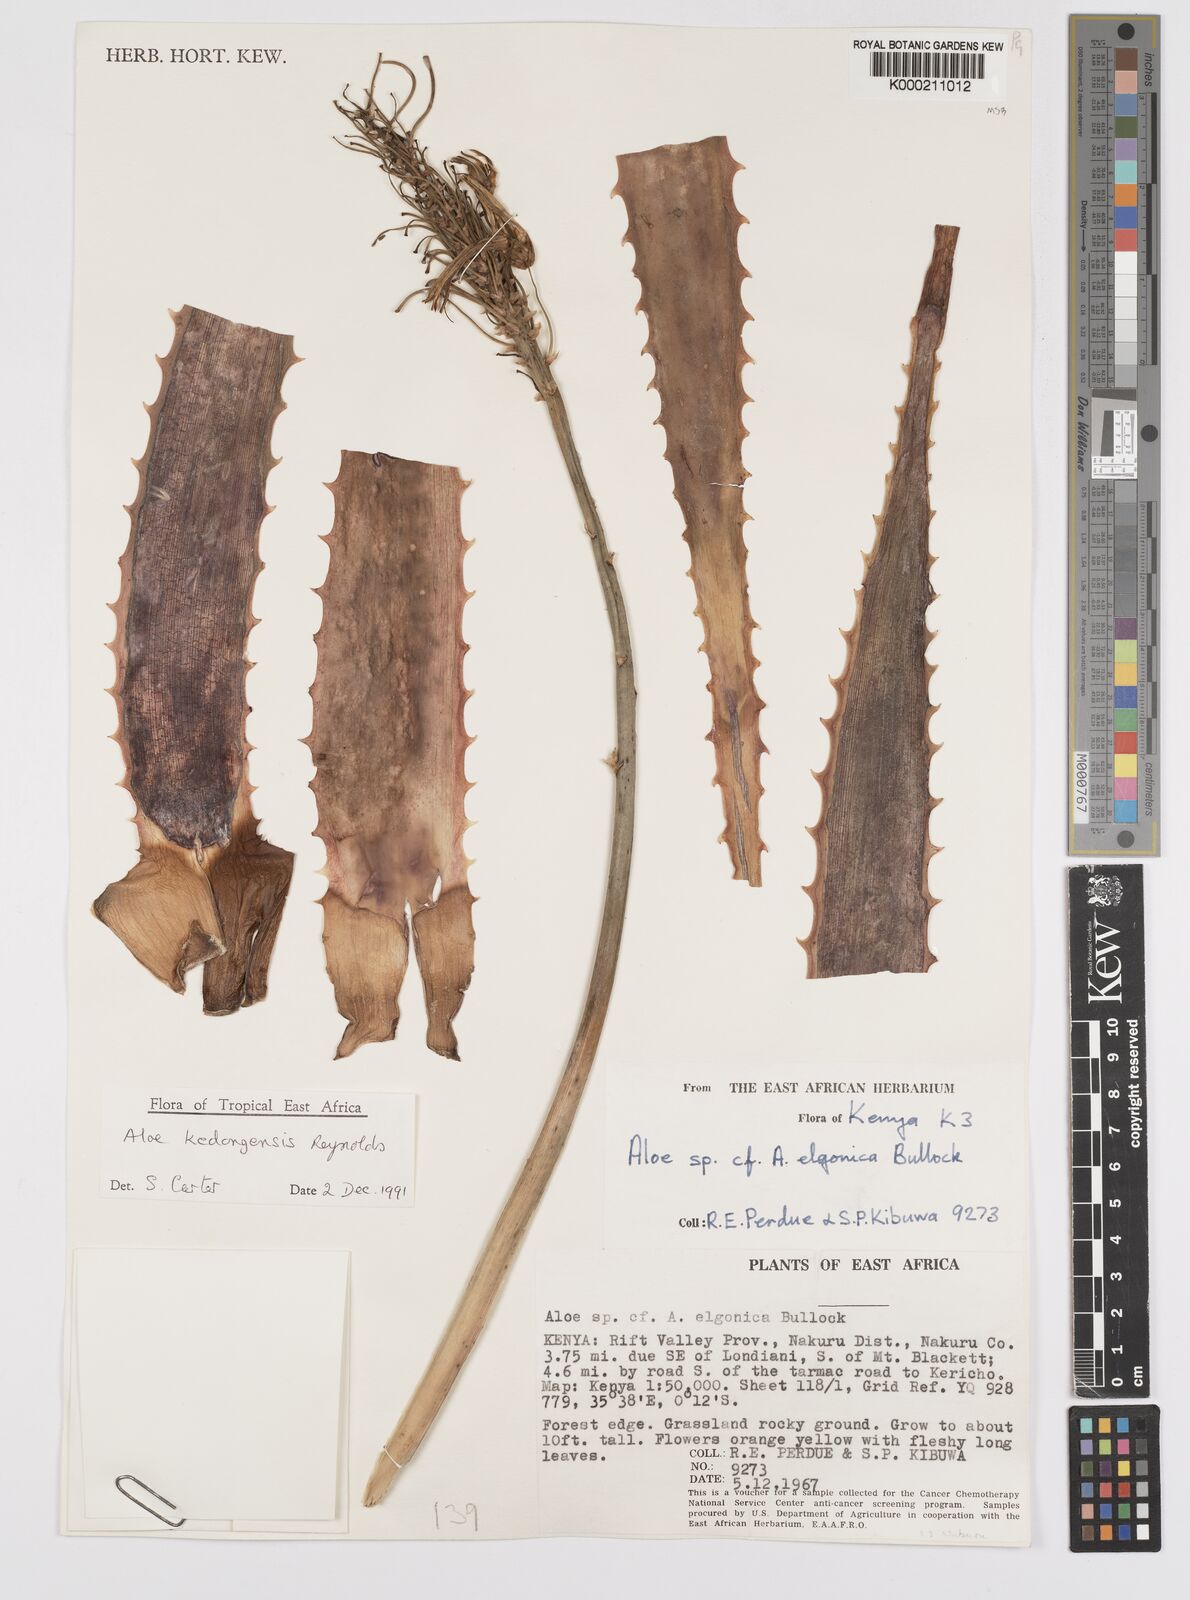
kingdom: Plantae
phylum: Tracheophyta
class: Liliopsida
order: Asparagales
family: Asphodelaceae
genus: Aloe
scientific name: Aloe kedongensis
